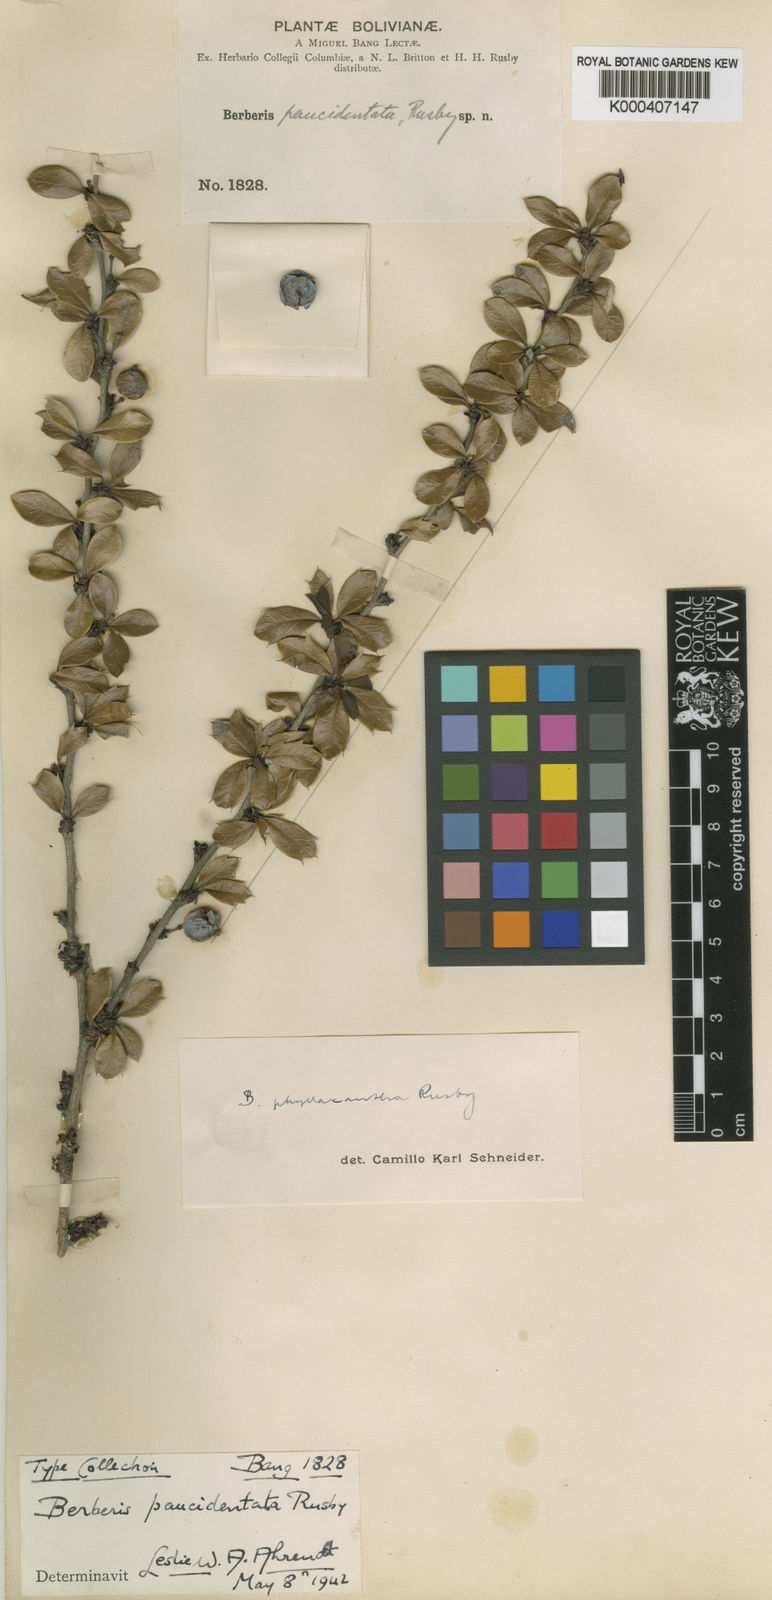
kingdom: Plantae
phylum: Tracheophyta
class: Magnoliopsida
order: Ranunculales
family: Berberidaceae
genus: Berberis
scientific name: Berberis phyllacantha
